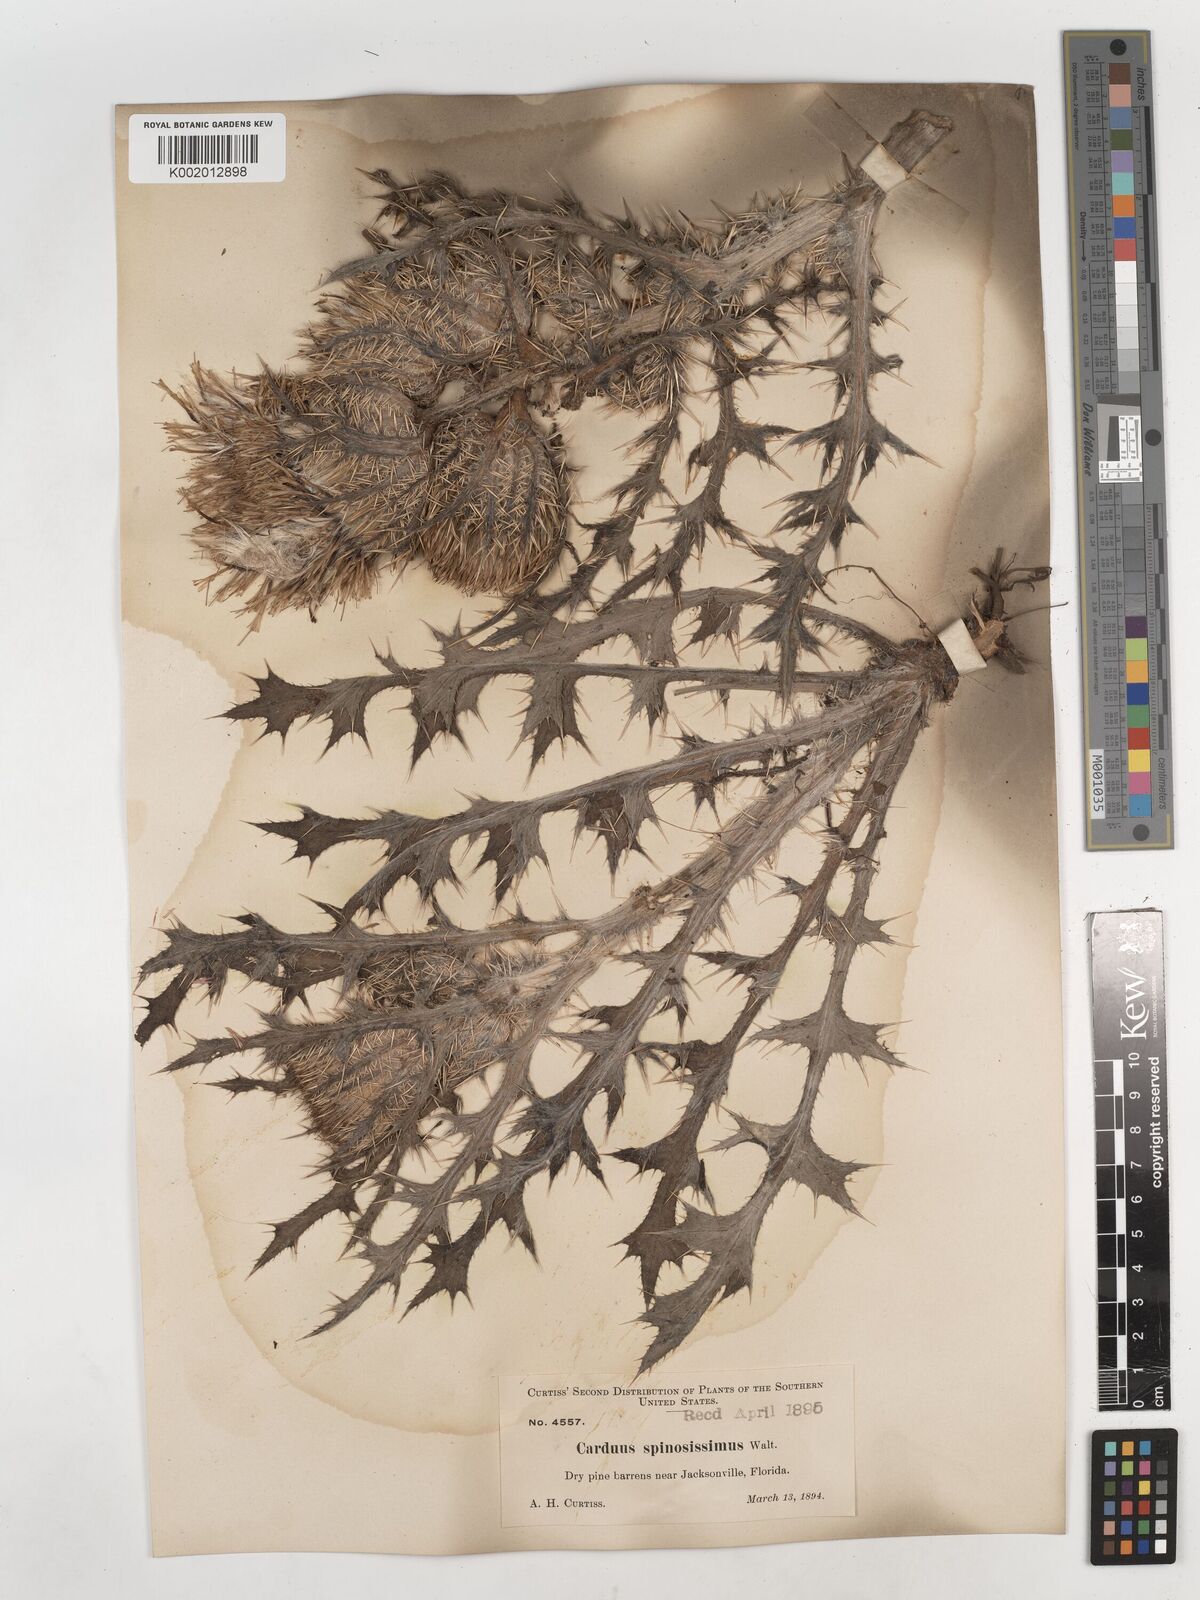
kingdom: Plantae
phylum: Tracheophyta
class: Magnoliopsida
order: Asterales
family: Asteraceae
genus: Cirsium
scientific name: Cirsium horridulum
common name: Bristly thistle
